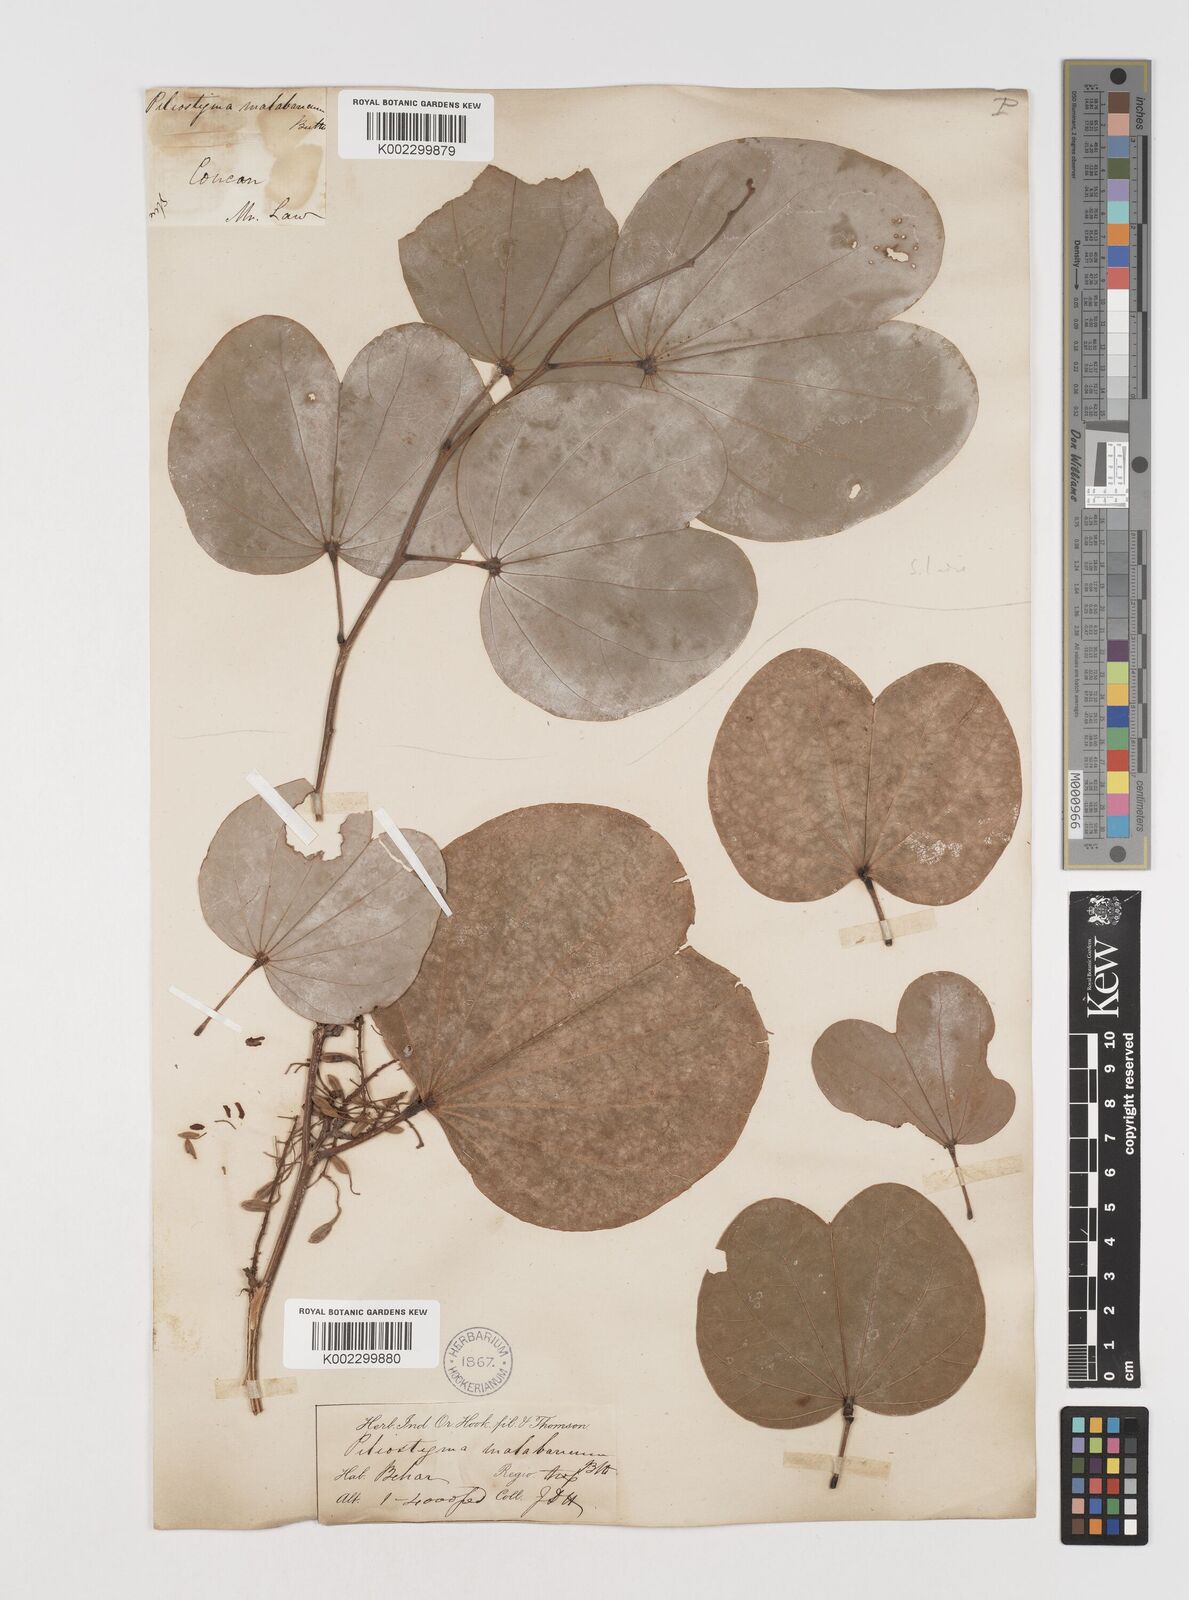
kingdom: Plantae
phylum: Tracheophyta
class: Magnoliopsida
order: Fabales
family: Fabaceae
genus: Piliostigma
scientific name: Piliostigma malabaricum
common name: Malabar bauhinia
